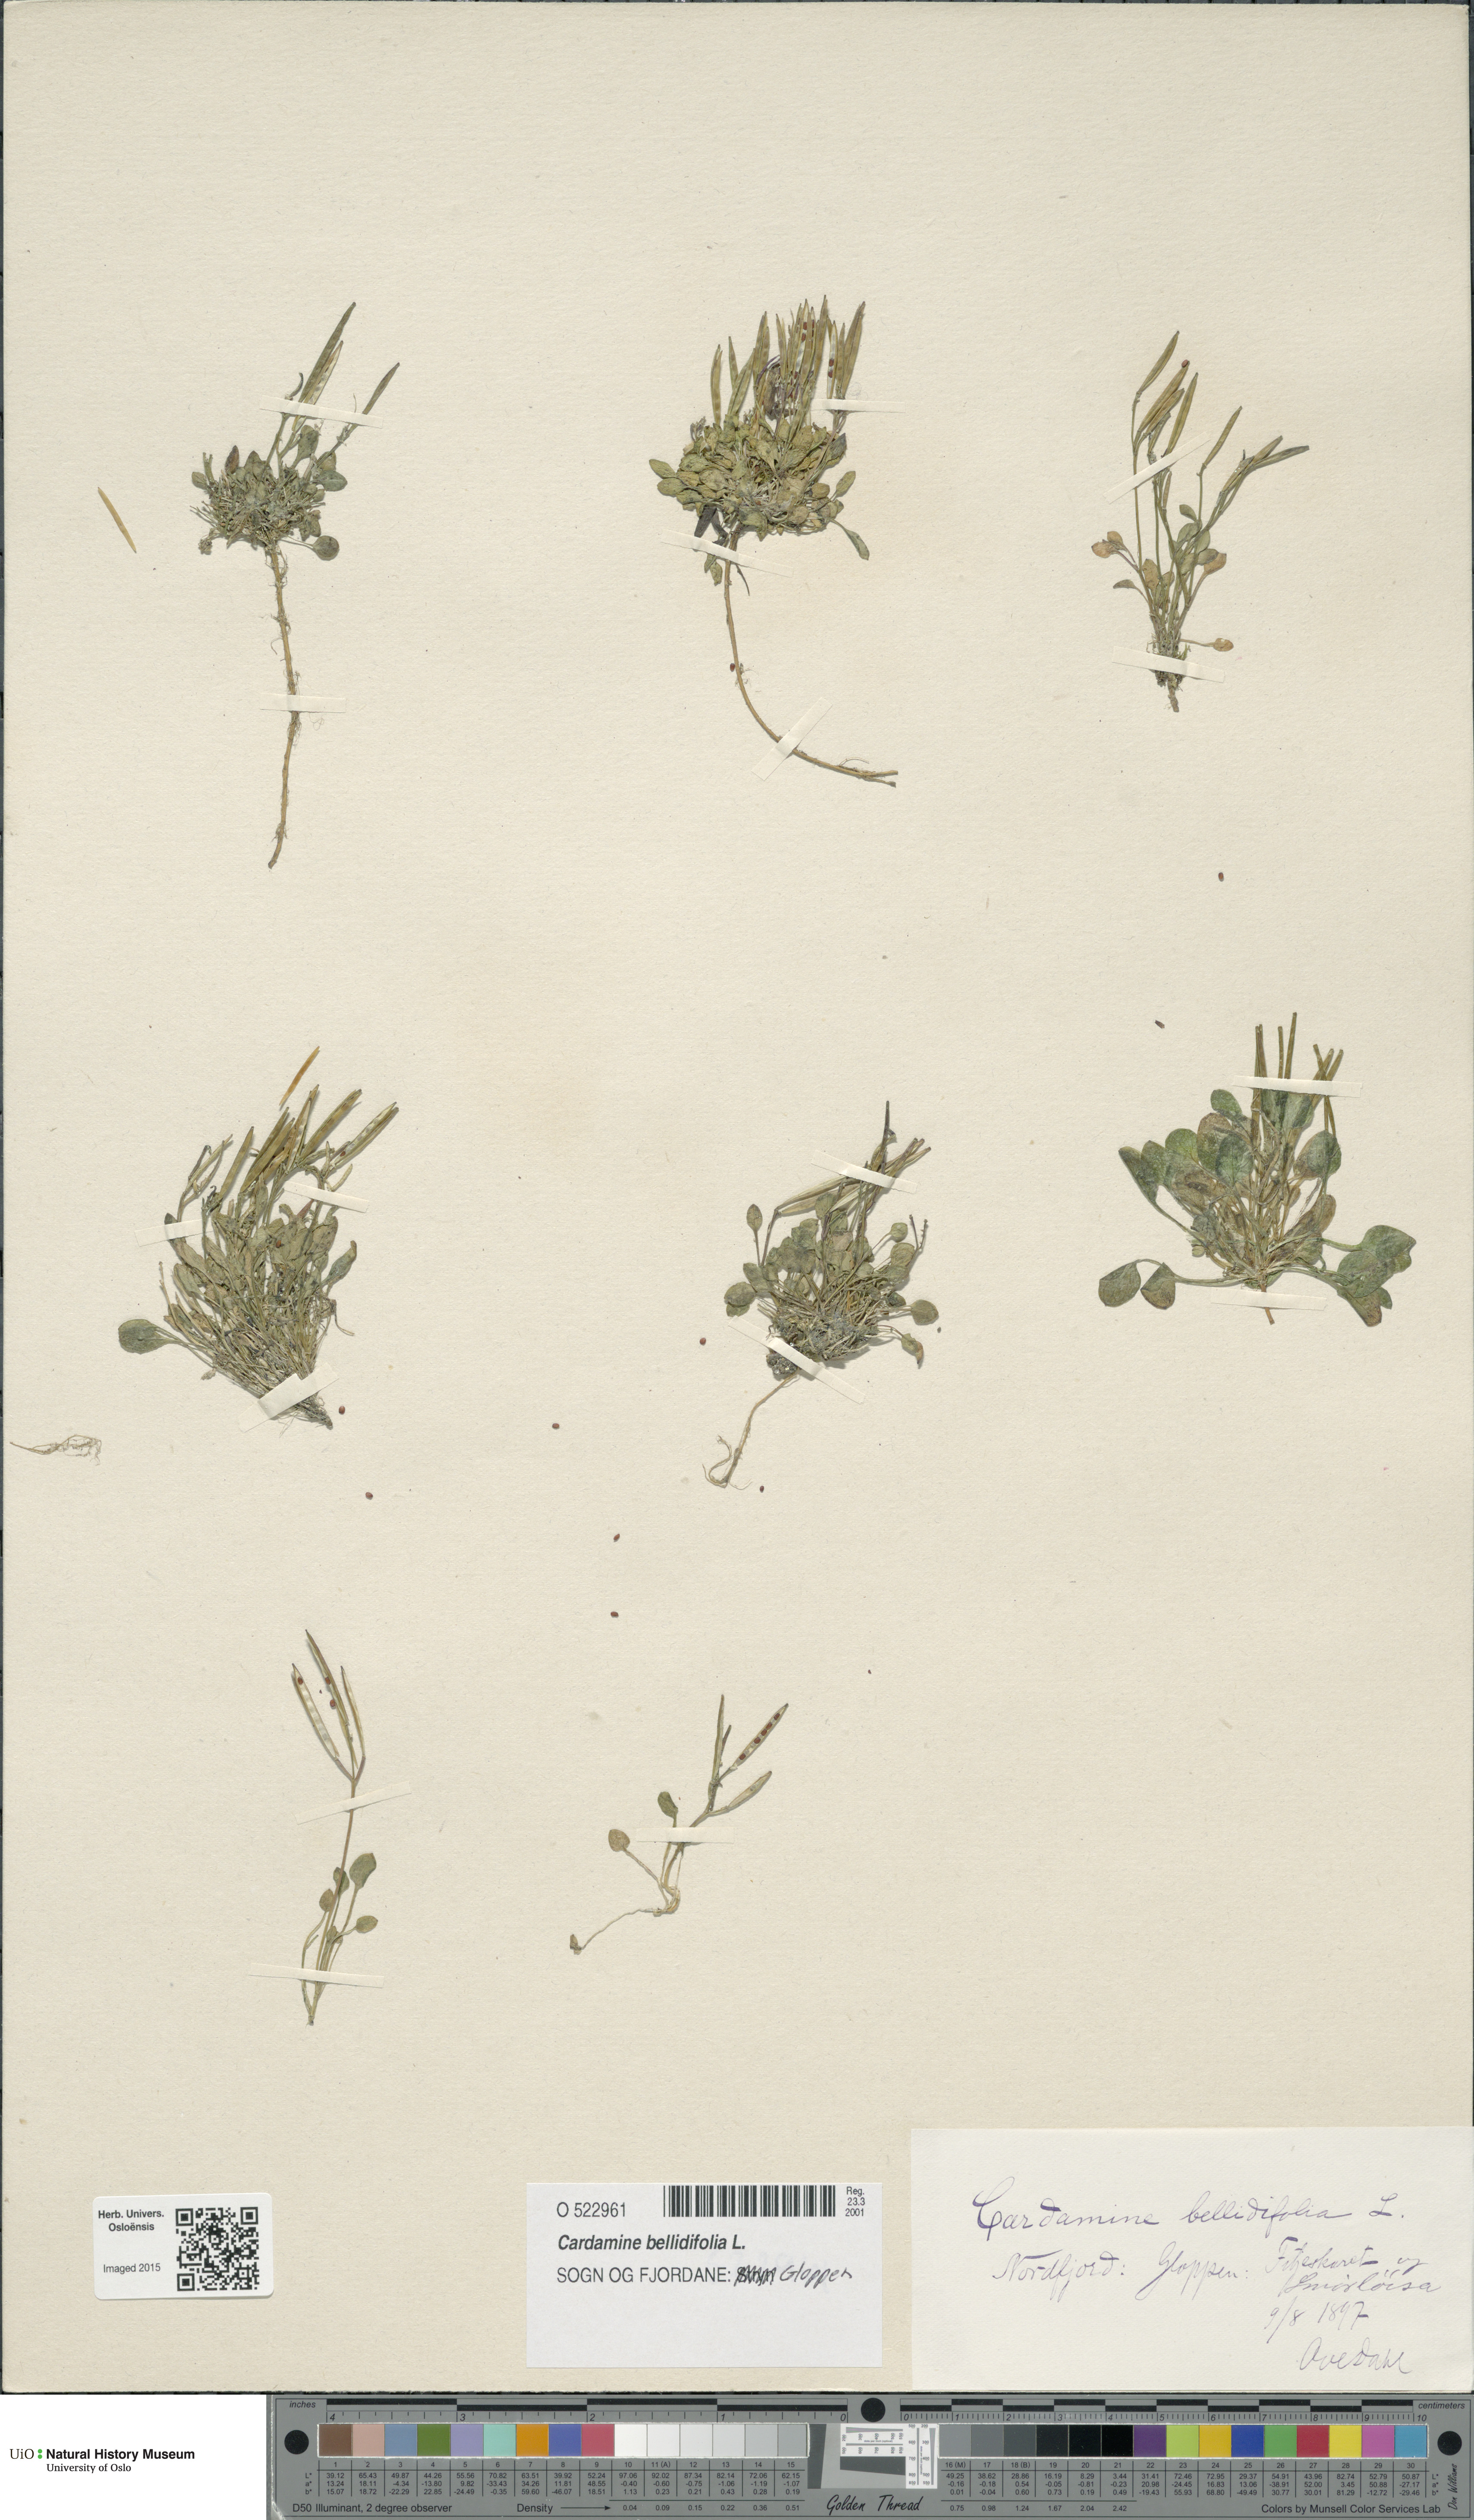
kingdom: Plantae
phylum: Tracheophyta
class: Magnoliopsida
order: Brassicales
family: Brassicaceae
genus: Cardamine
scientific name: Cardamine bellidifolia
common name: Alpine bittercress
